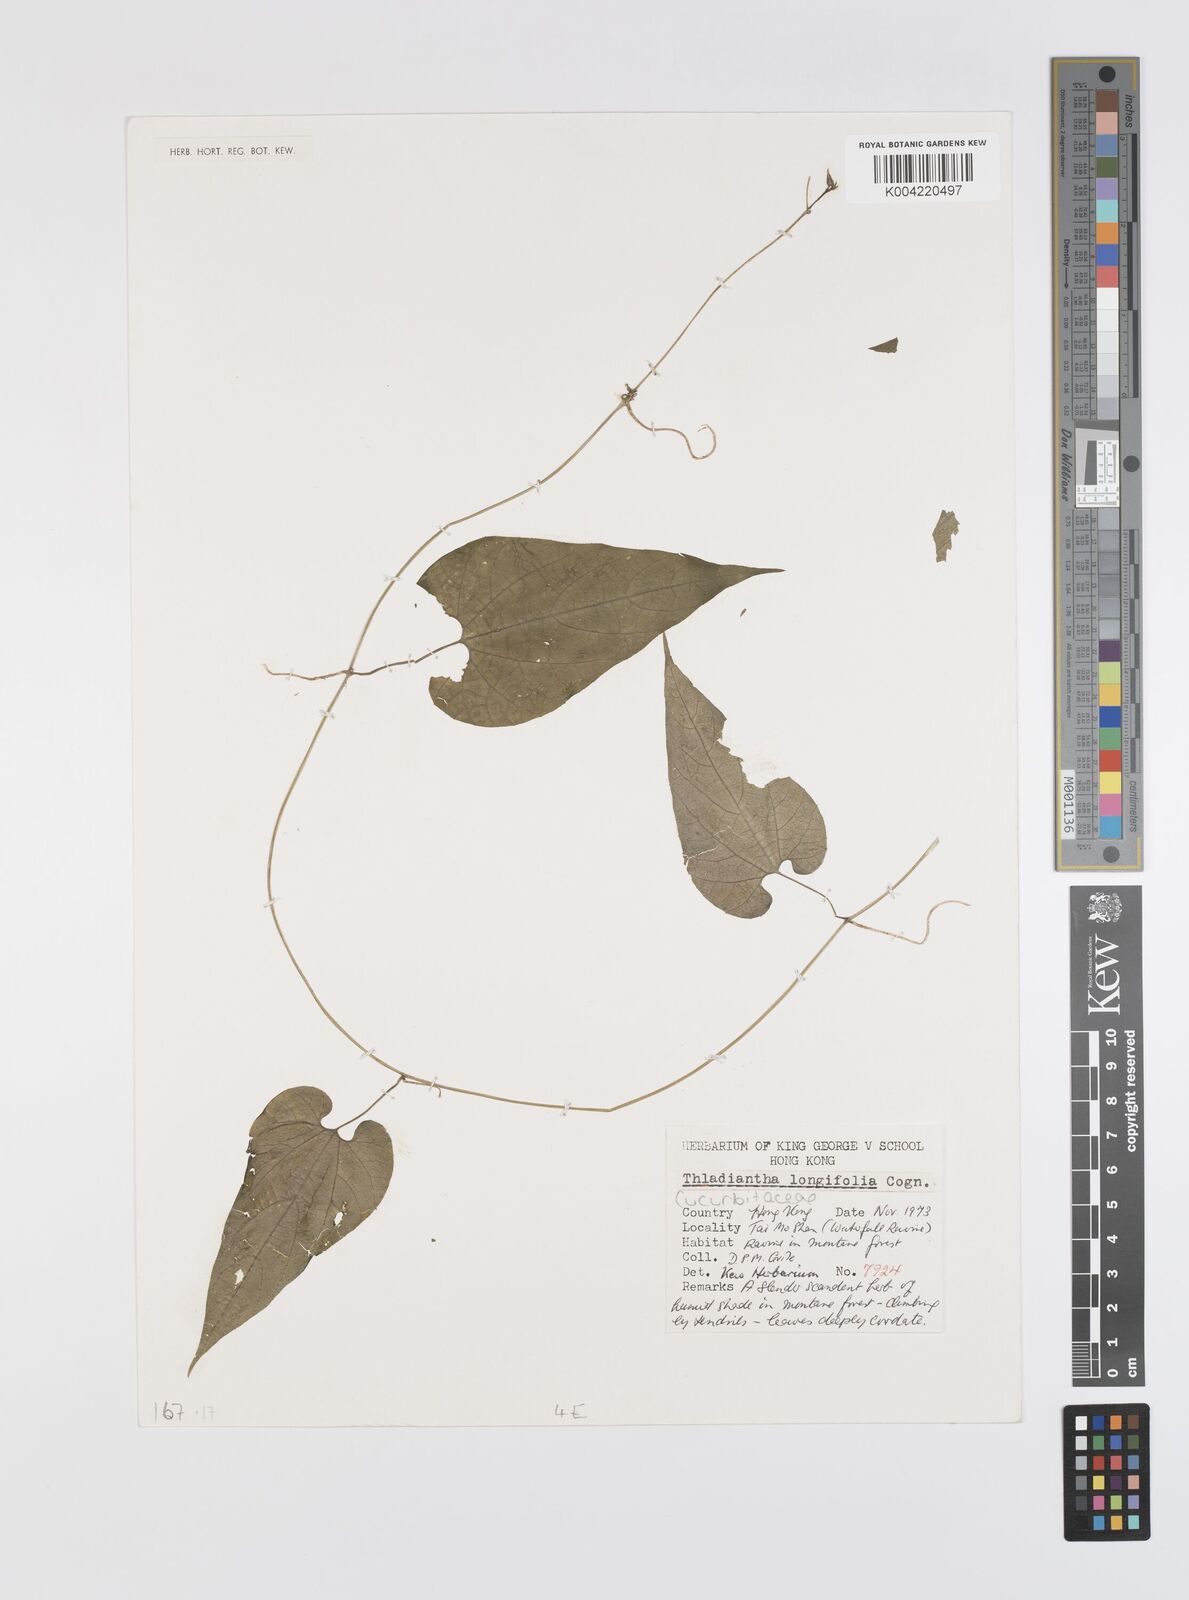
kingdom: Plantae
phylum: Tracheophyta
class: Magnoliopsida
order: Cucurbitales
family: Cucurbitaceae
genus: Thladiantha
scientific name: Thladiantha longifolia
